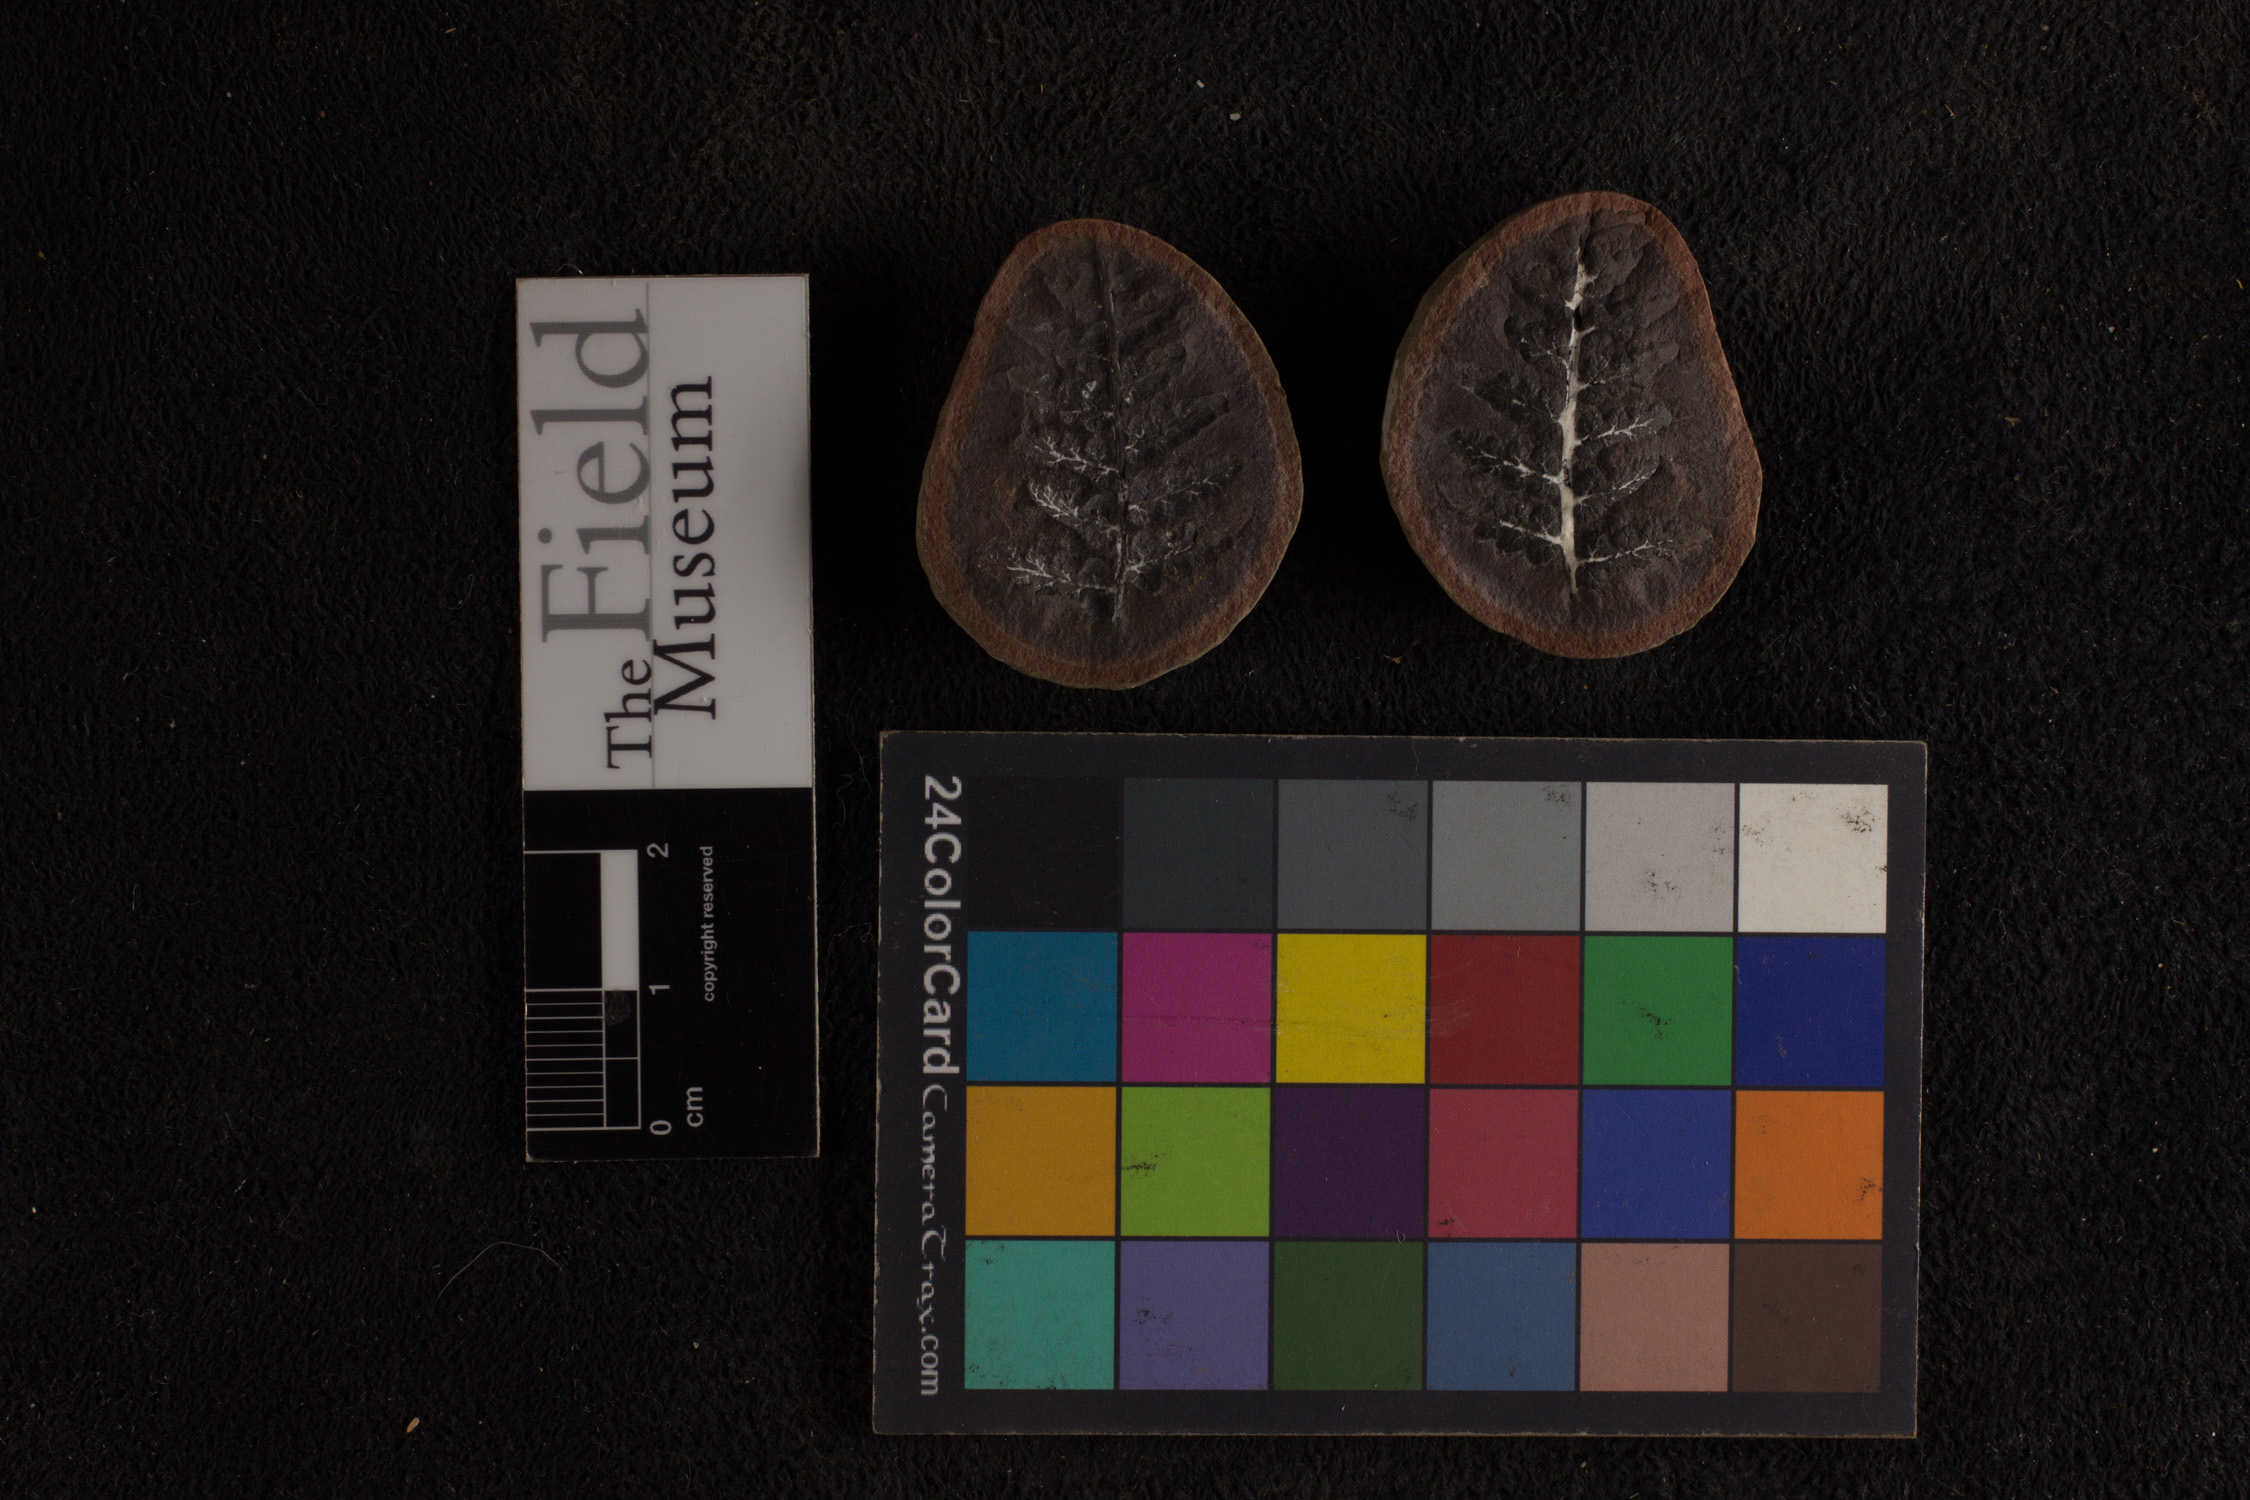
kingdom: Plantae
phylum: Tracheophyta
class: Polypodiopsida
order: Marattiales
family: Asterothecaceae
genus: Pecopteris
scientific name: Pecopteris
